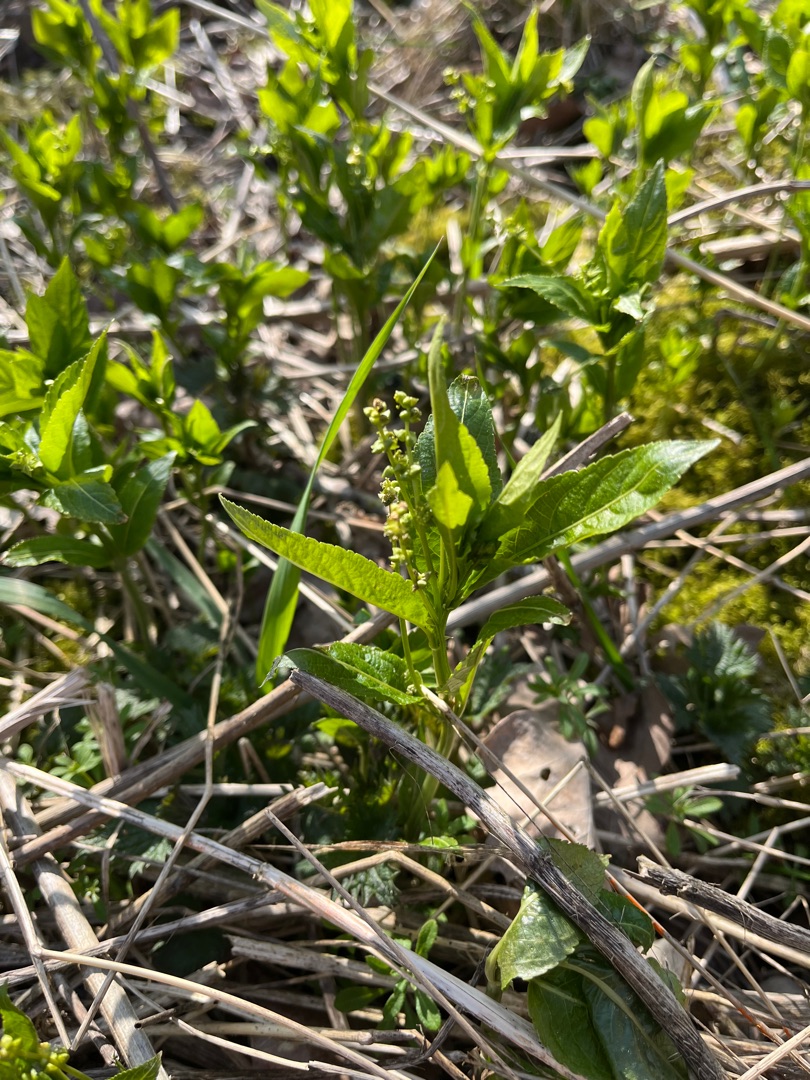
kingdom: Plantae
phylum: Tracheophyta
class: Magnoliopsida
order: Malpighiales
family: Euphorbiaceae
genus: Mercurialis
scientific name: Mercurialis perennis
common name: Almindelig bingelurt
